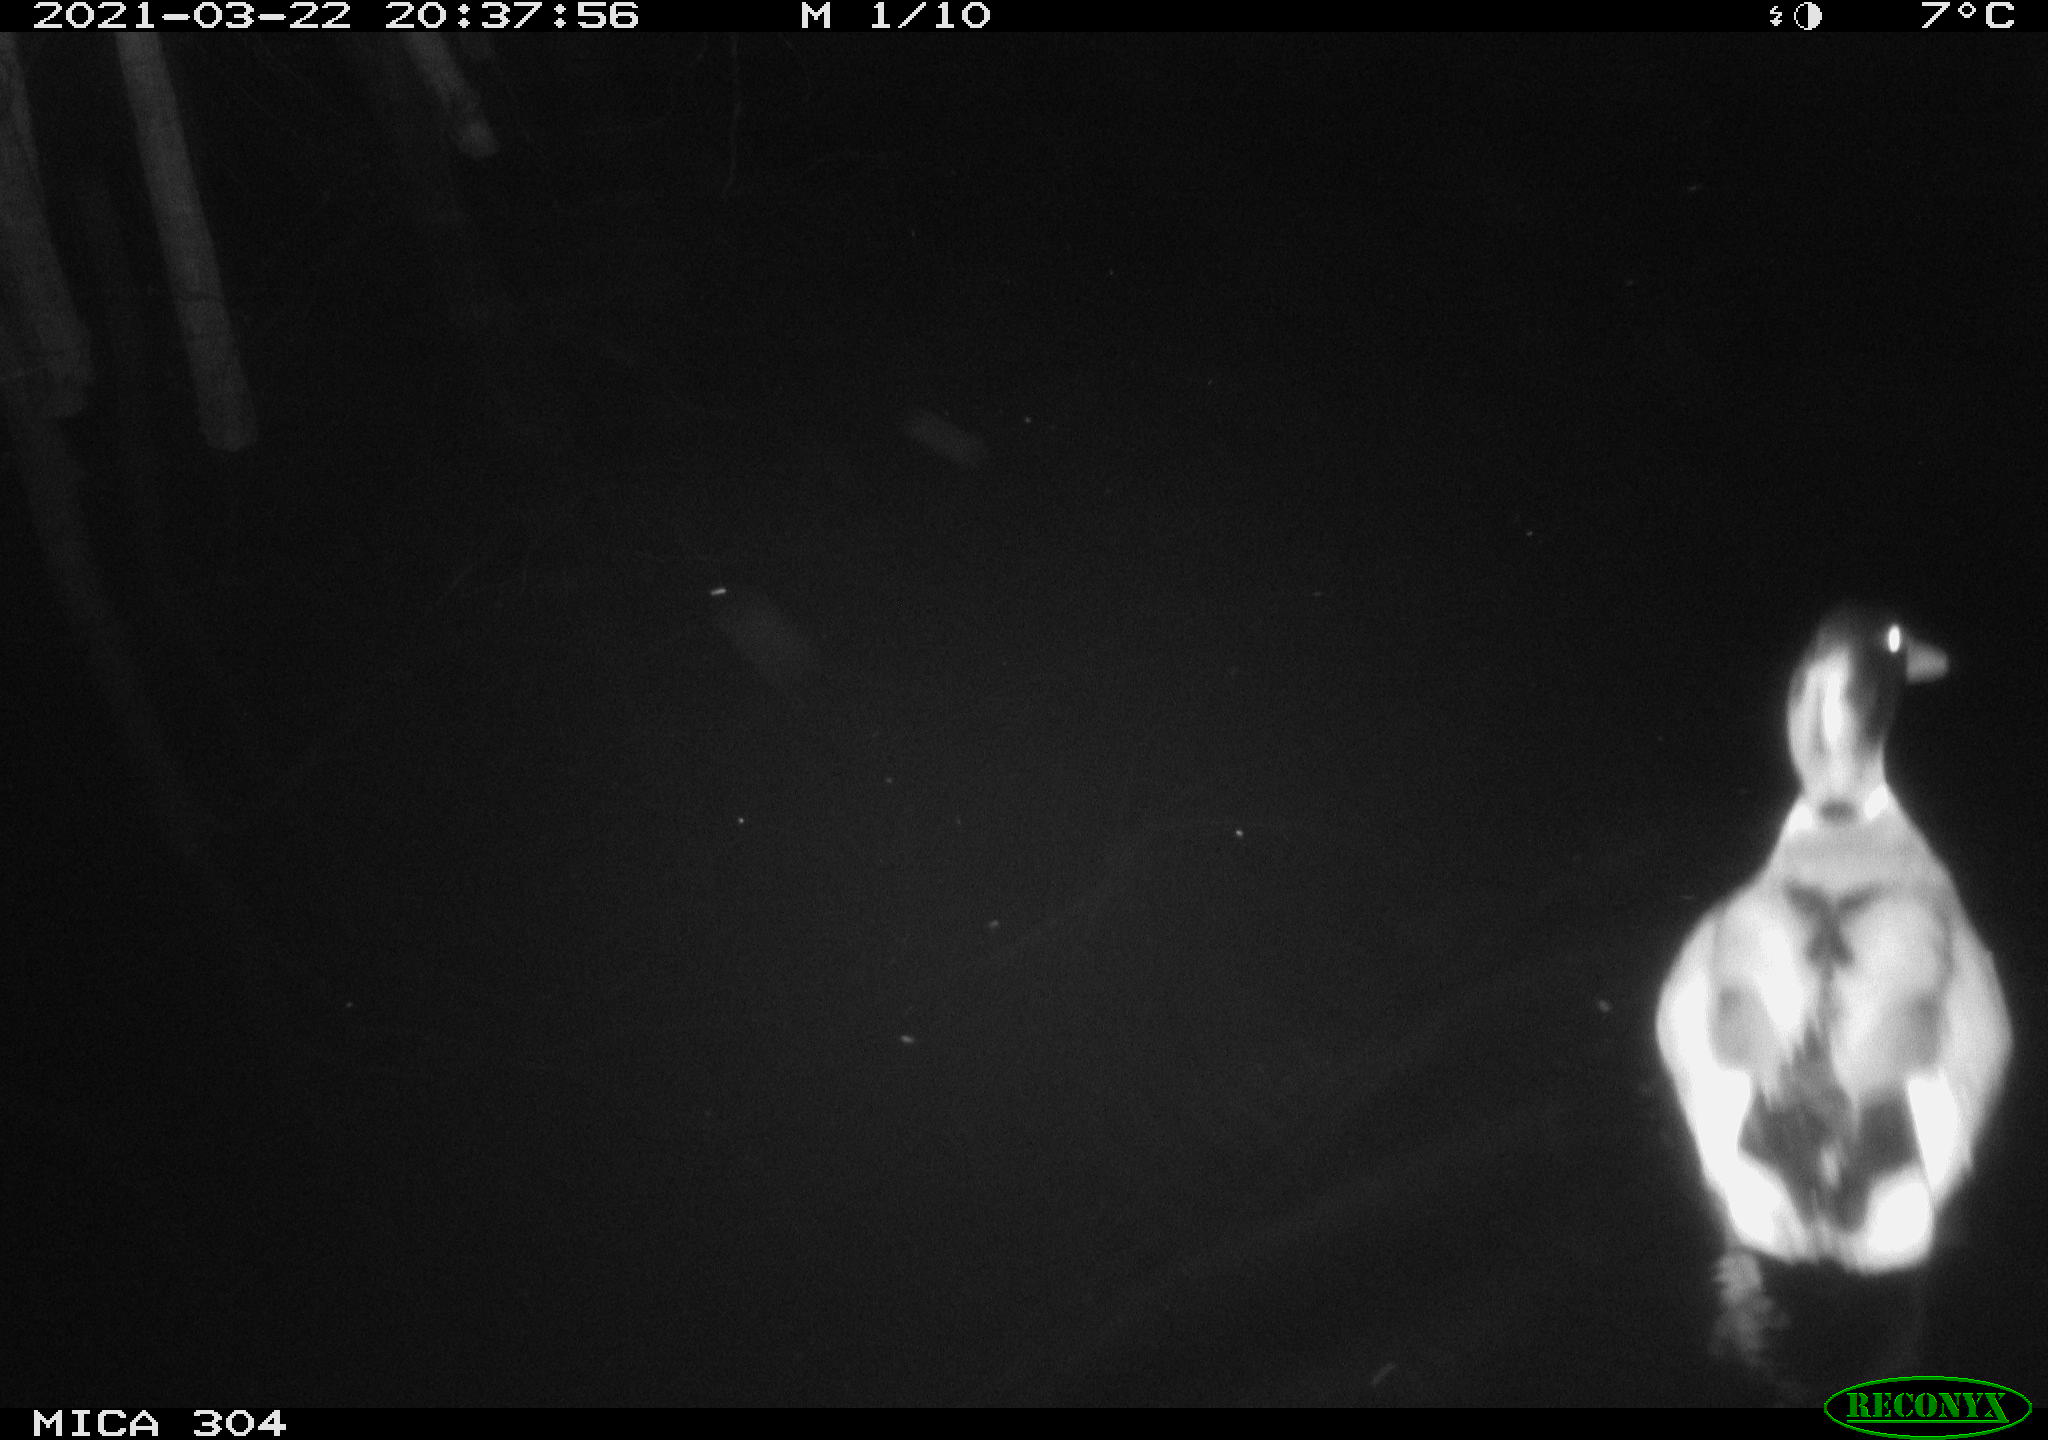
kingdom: Animalia
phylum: Chordata
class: Aves
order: Anseriformes
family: Anatidae
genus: Anas
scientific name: Anas platyrhynchos
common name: Mallard
